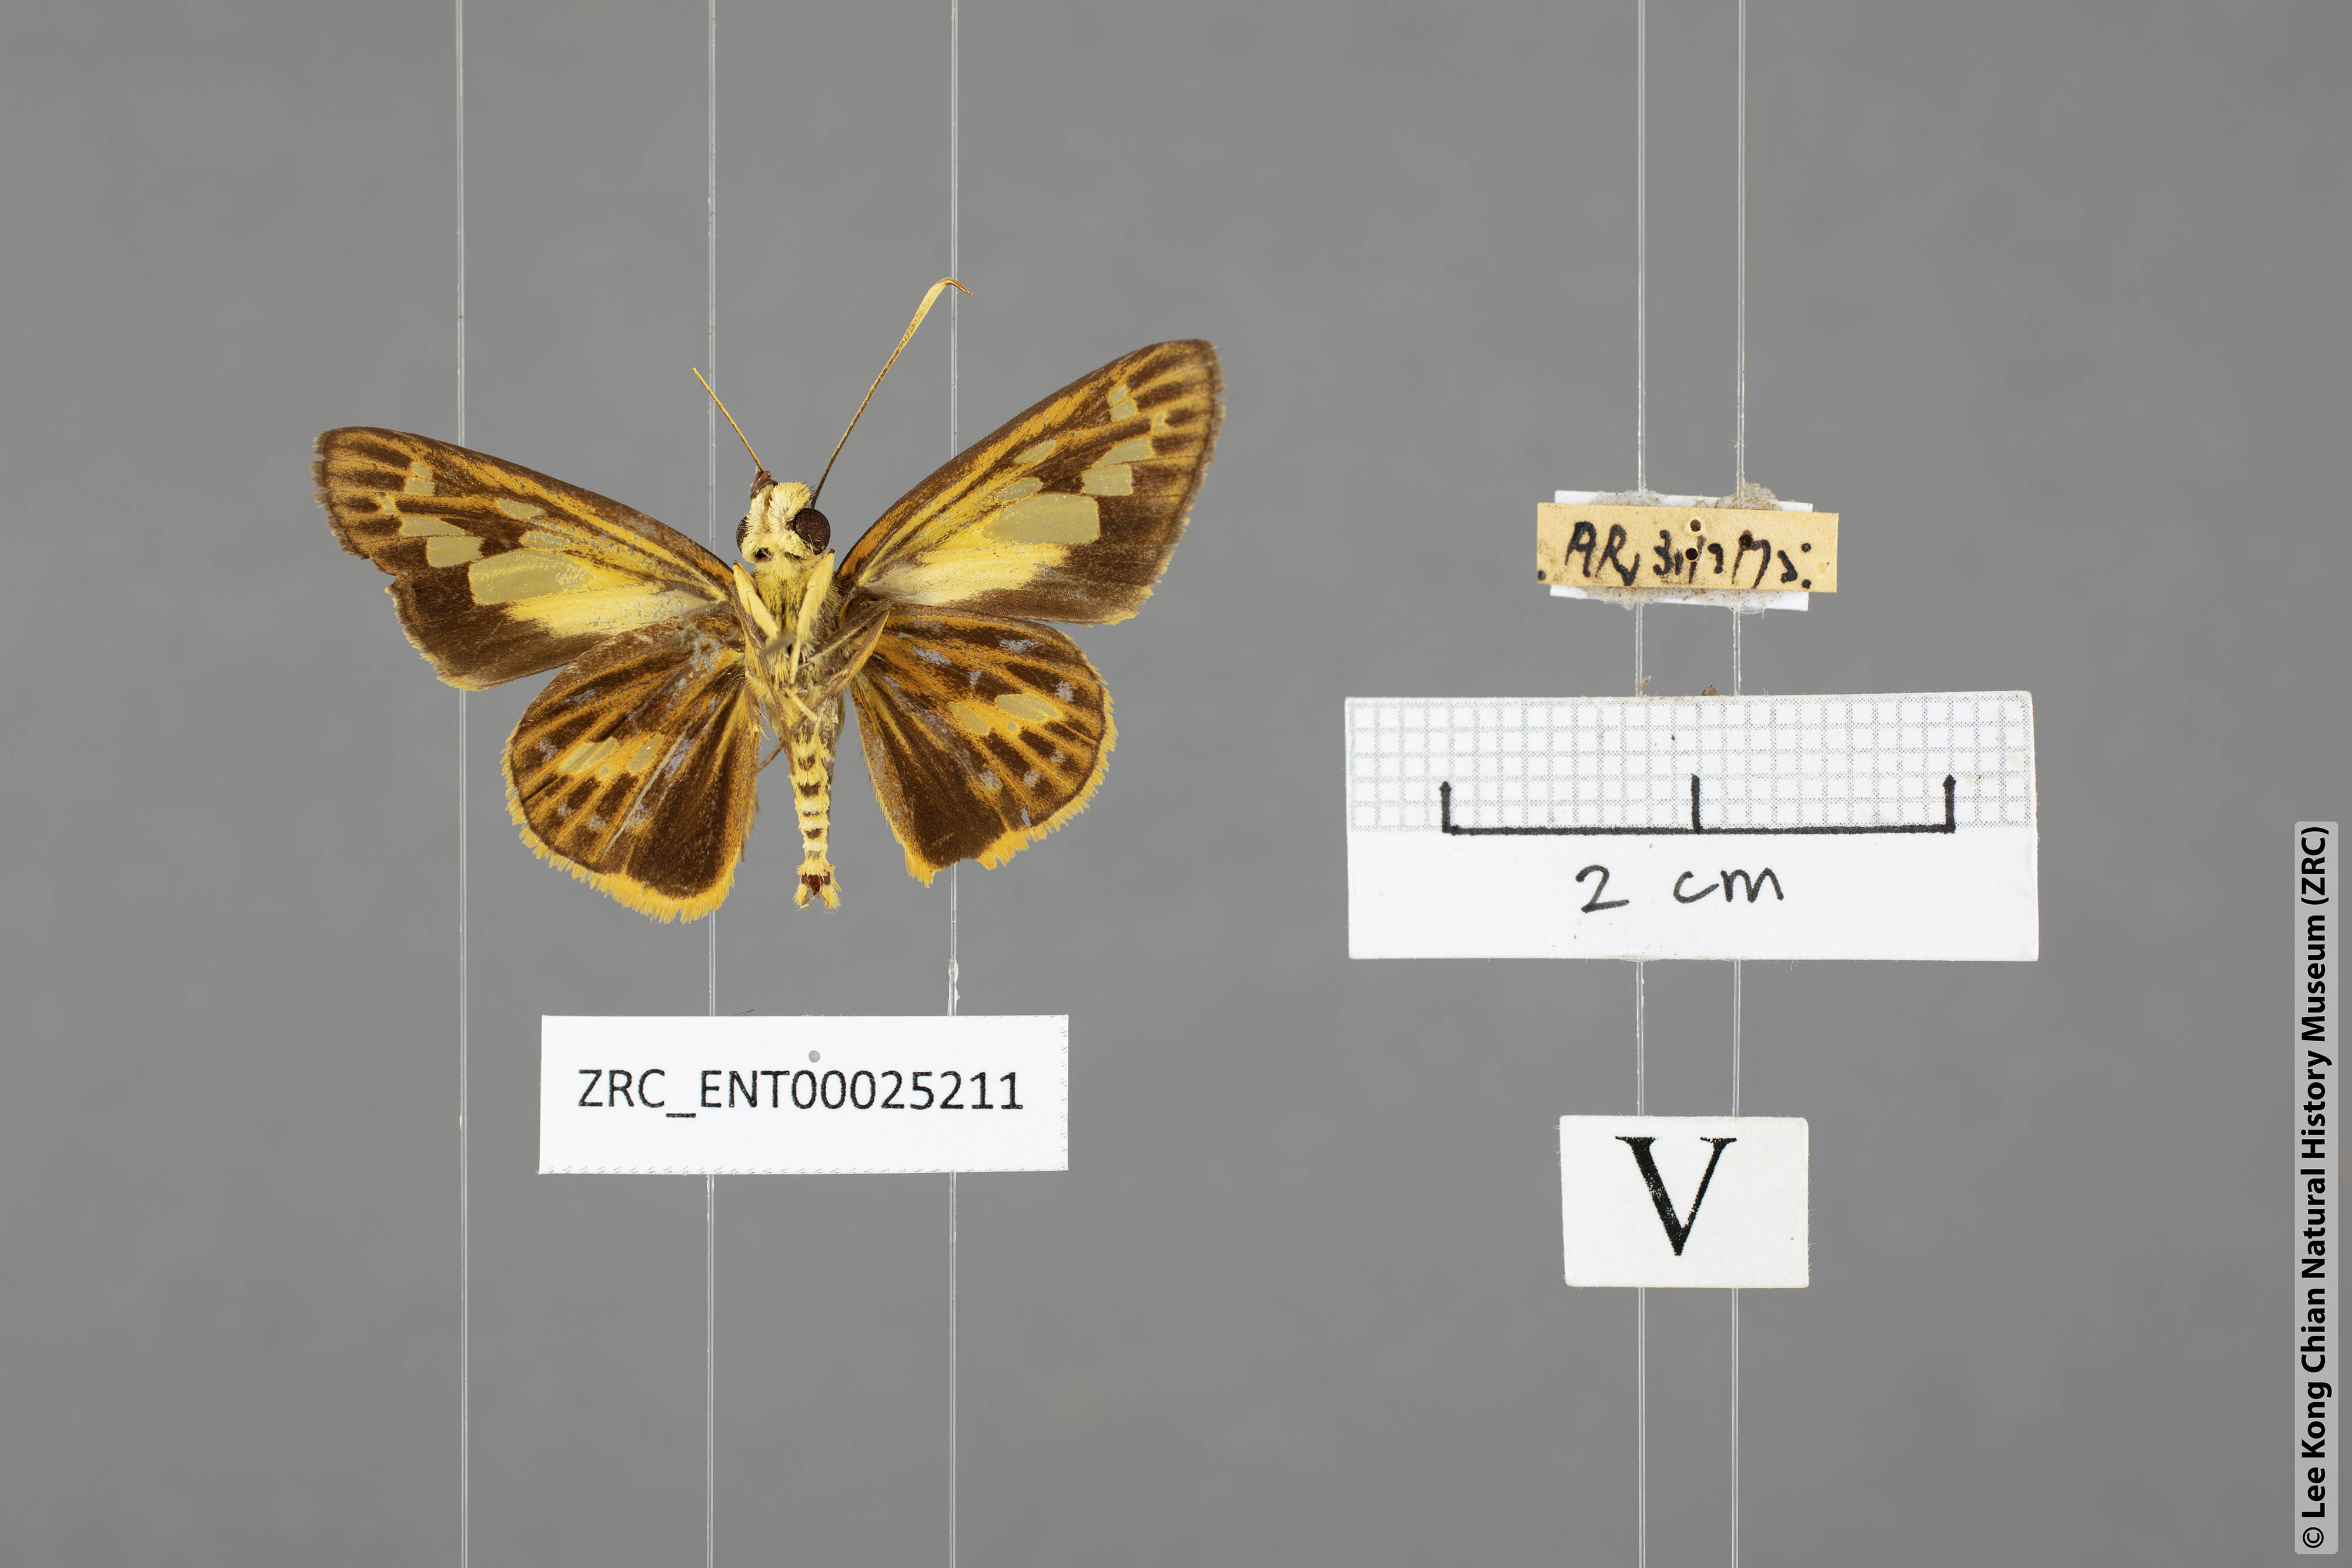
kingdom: Animalia
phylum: Arthropoda
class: Insecta
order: Lepidoptera
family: Hesperiidae
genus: Pyroneura
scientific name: Pyroneura derna
